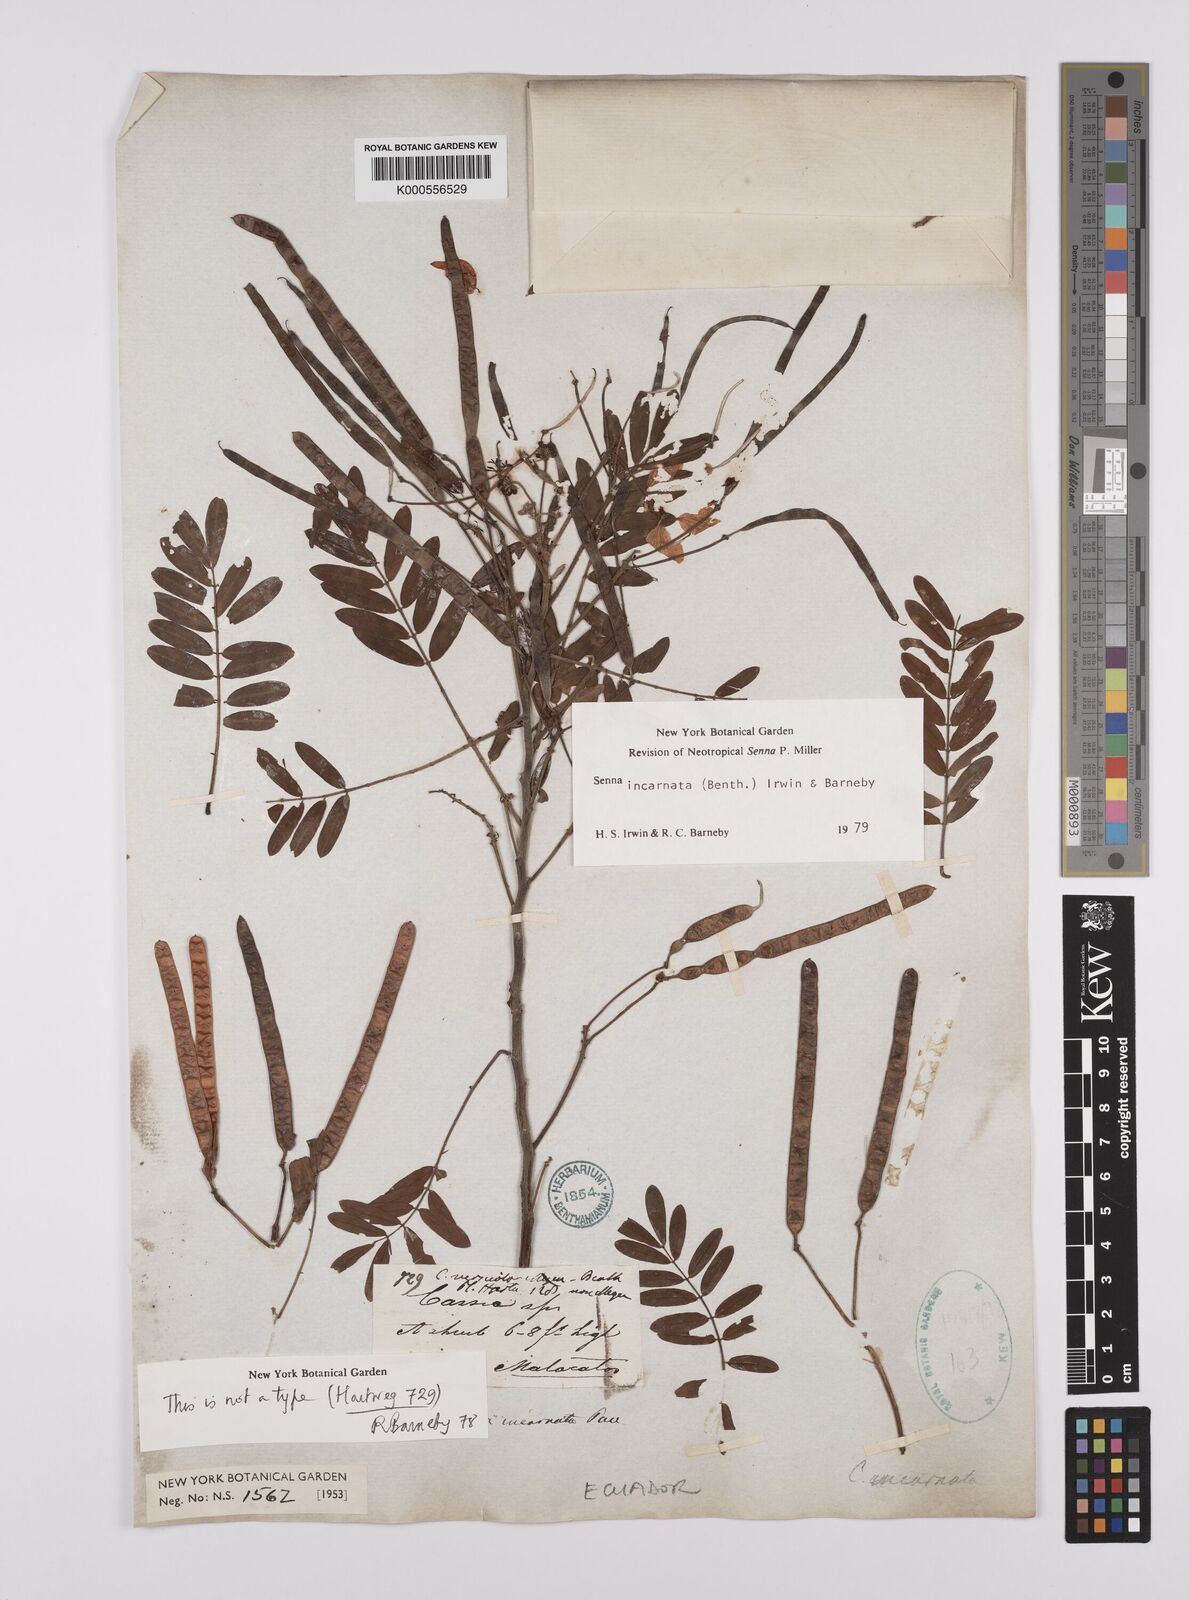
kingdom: Plantae
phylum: Tracheophyta
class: Magnoliopsida
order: Fabales
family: Fabaceae
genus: Senna
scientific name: Senna incarnata
